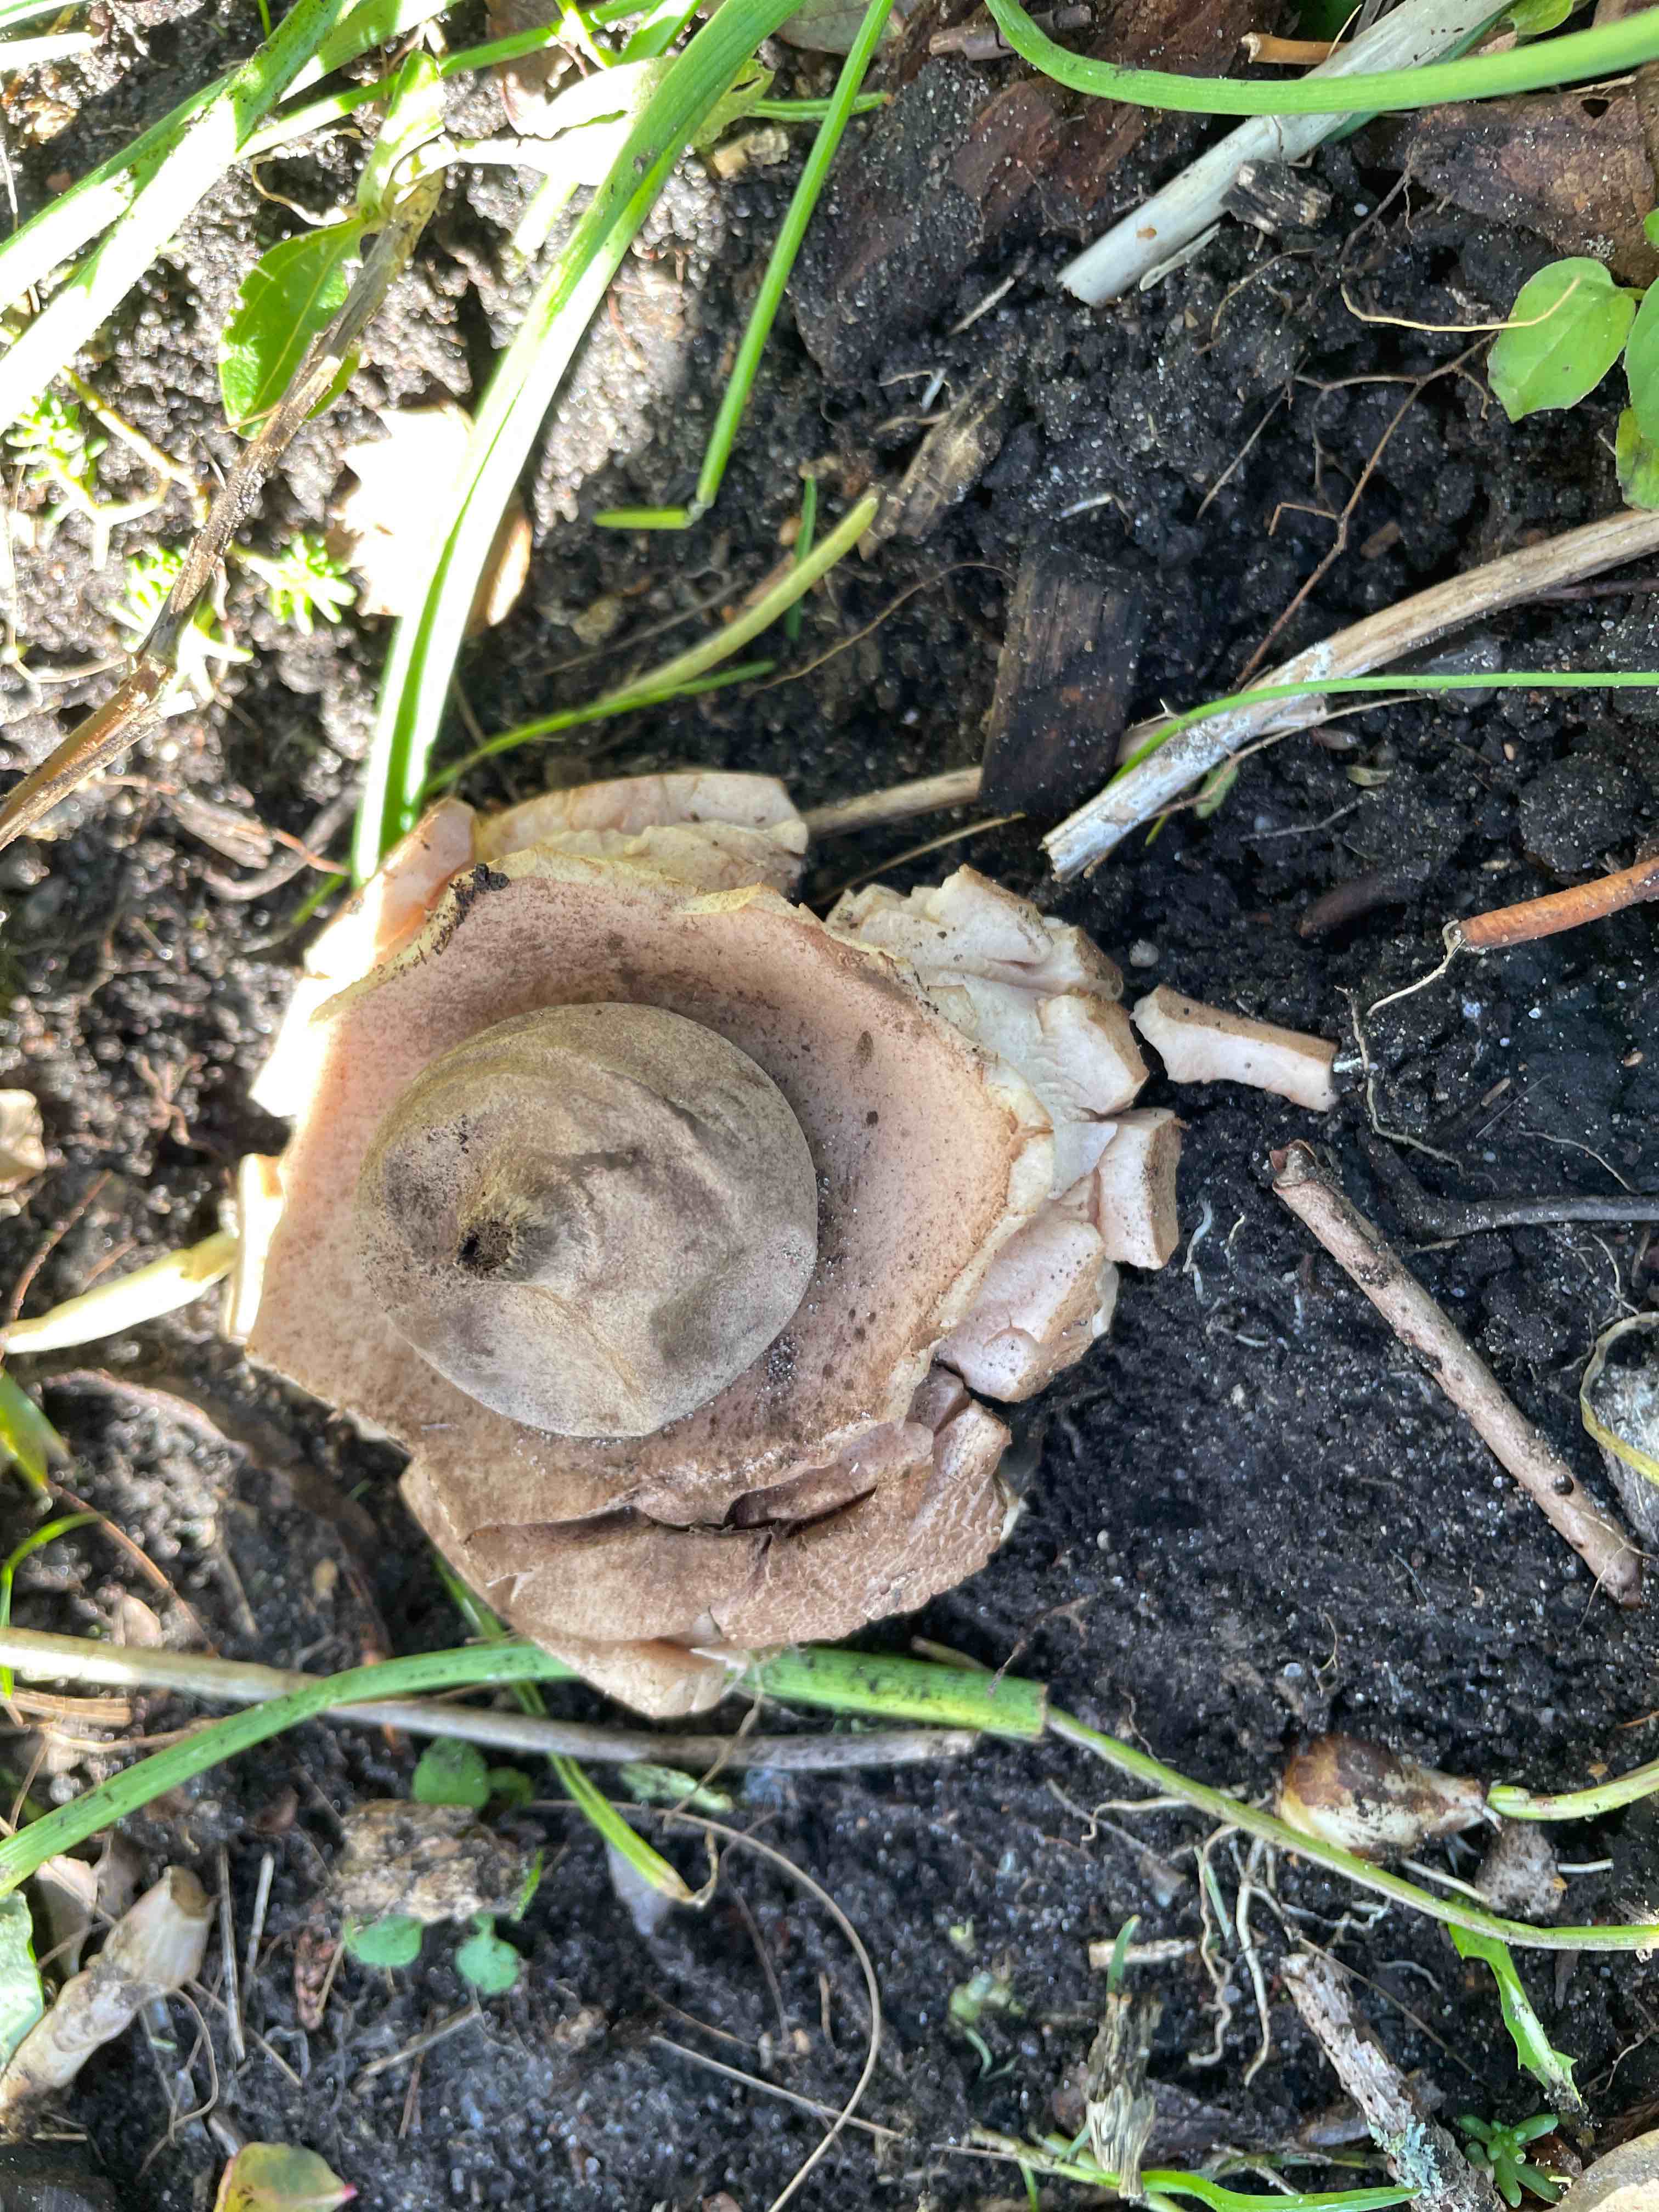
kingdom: Fungi
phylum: Basidiomycota
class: Agaricomycetes
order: Geastrales
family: Geastraceae
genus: Geastrum
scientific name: Geastrum michelianum
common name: kødet stjernebold
